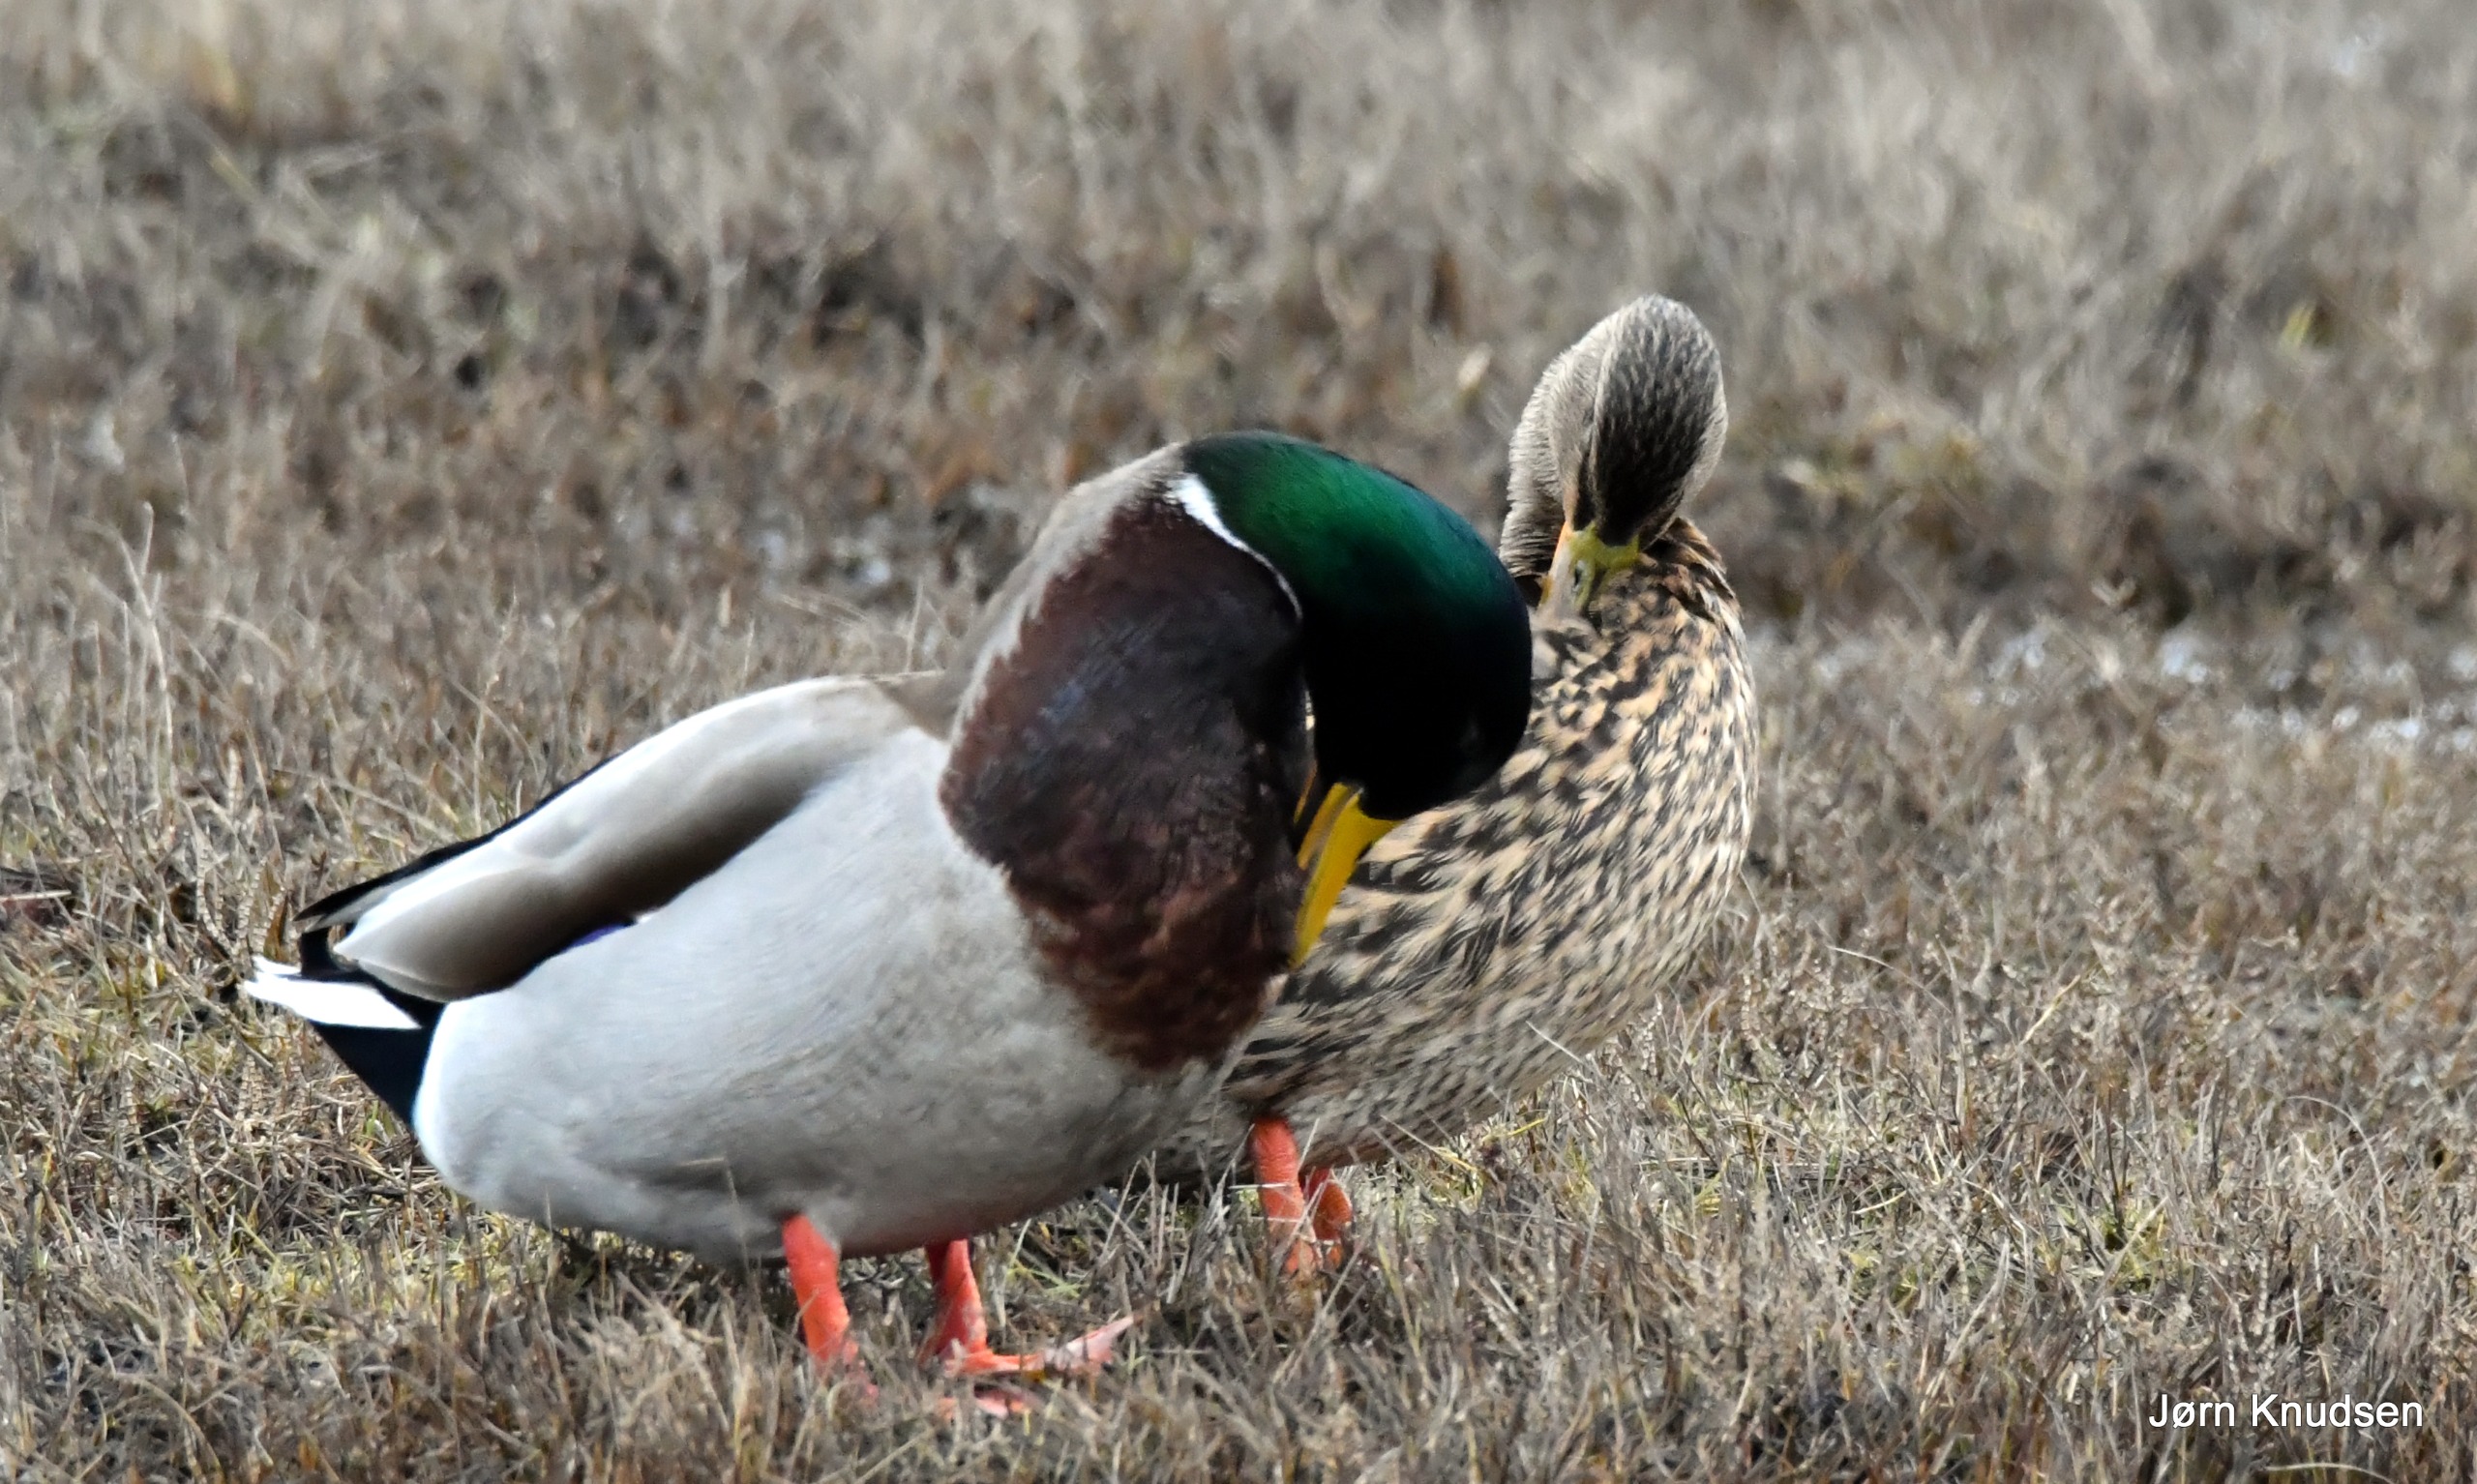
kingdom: Animalia
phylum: Chordata
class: Aves
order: Anseriformes
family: Anatidae
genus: Anas
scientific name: Anas platyrhynchos
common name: Gråand
